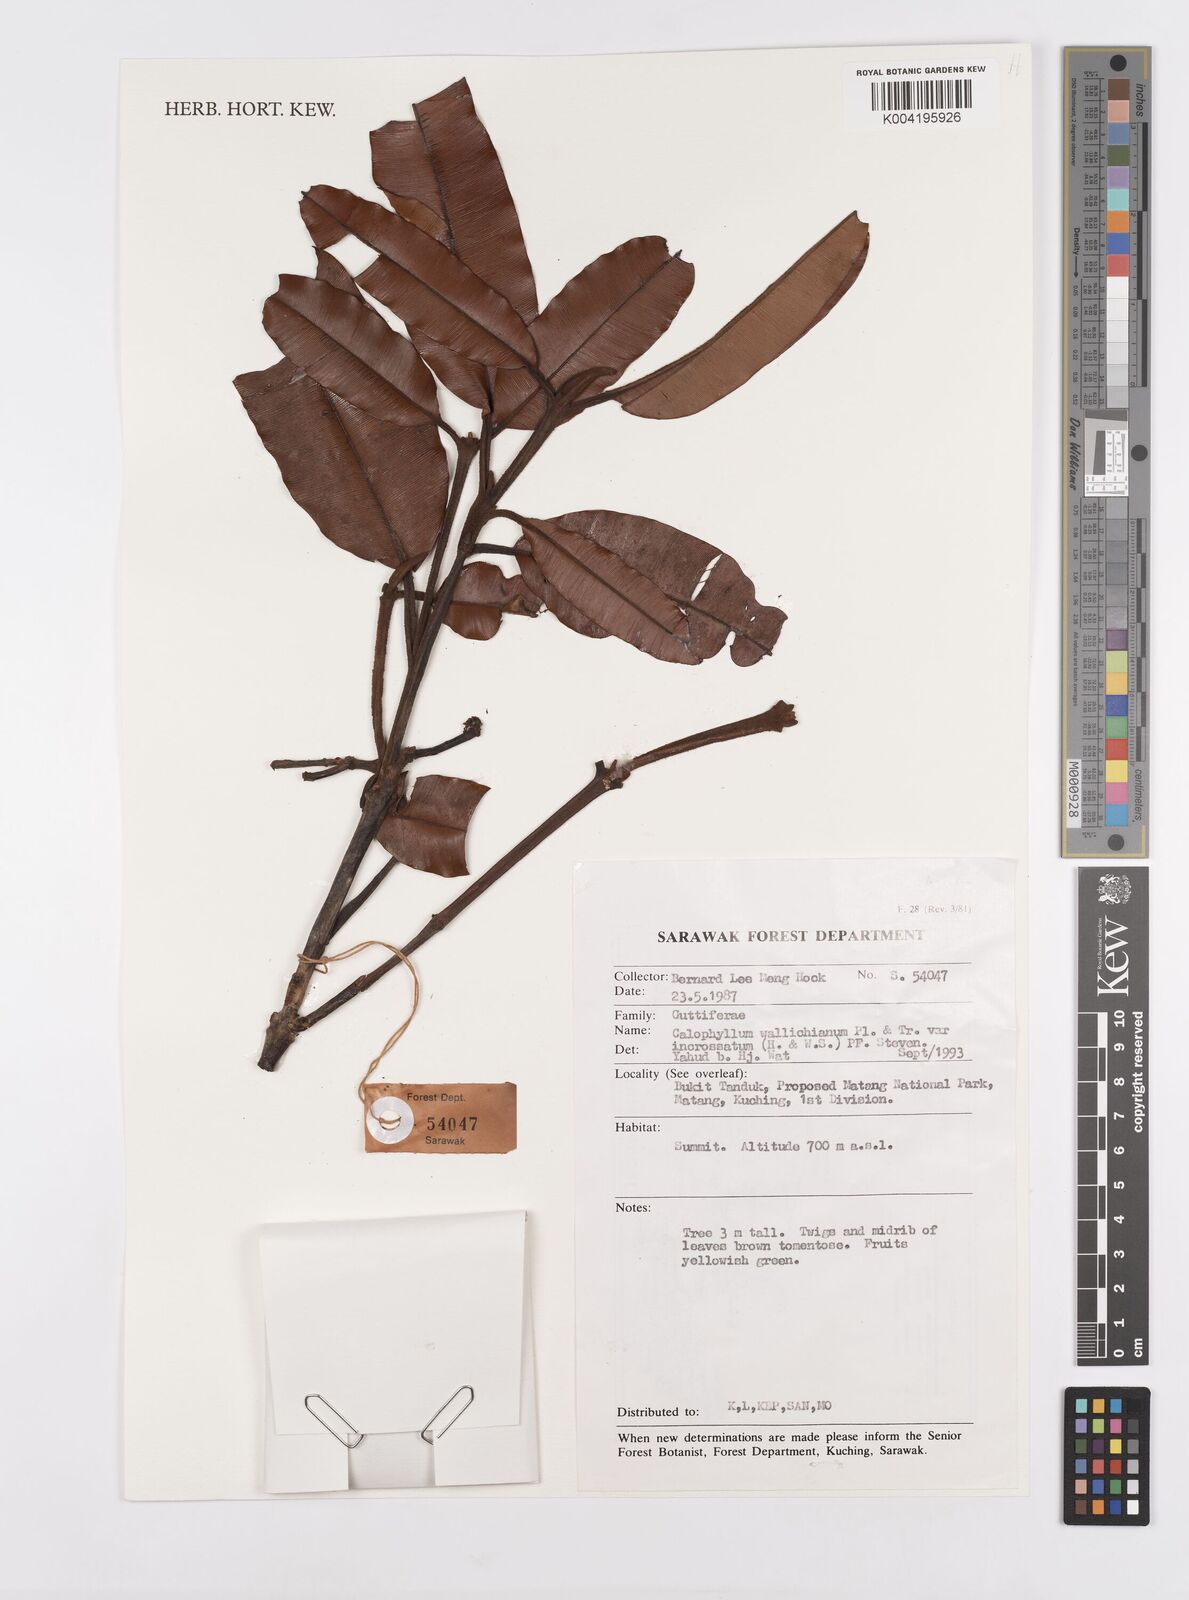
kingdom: Plantae
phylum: Tracheophyta
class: Magnoliopsida
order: Malpighiales
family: Calophyllaceae
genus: Calophyllum
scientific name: Calophyllum wallichiana
